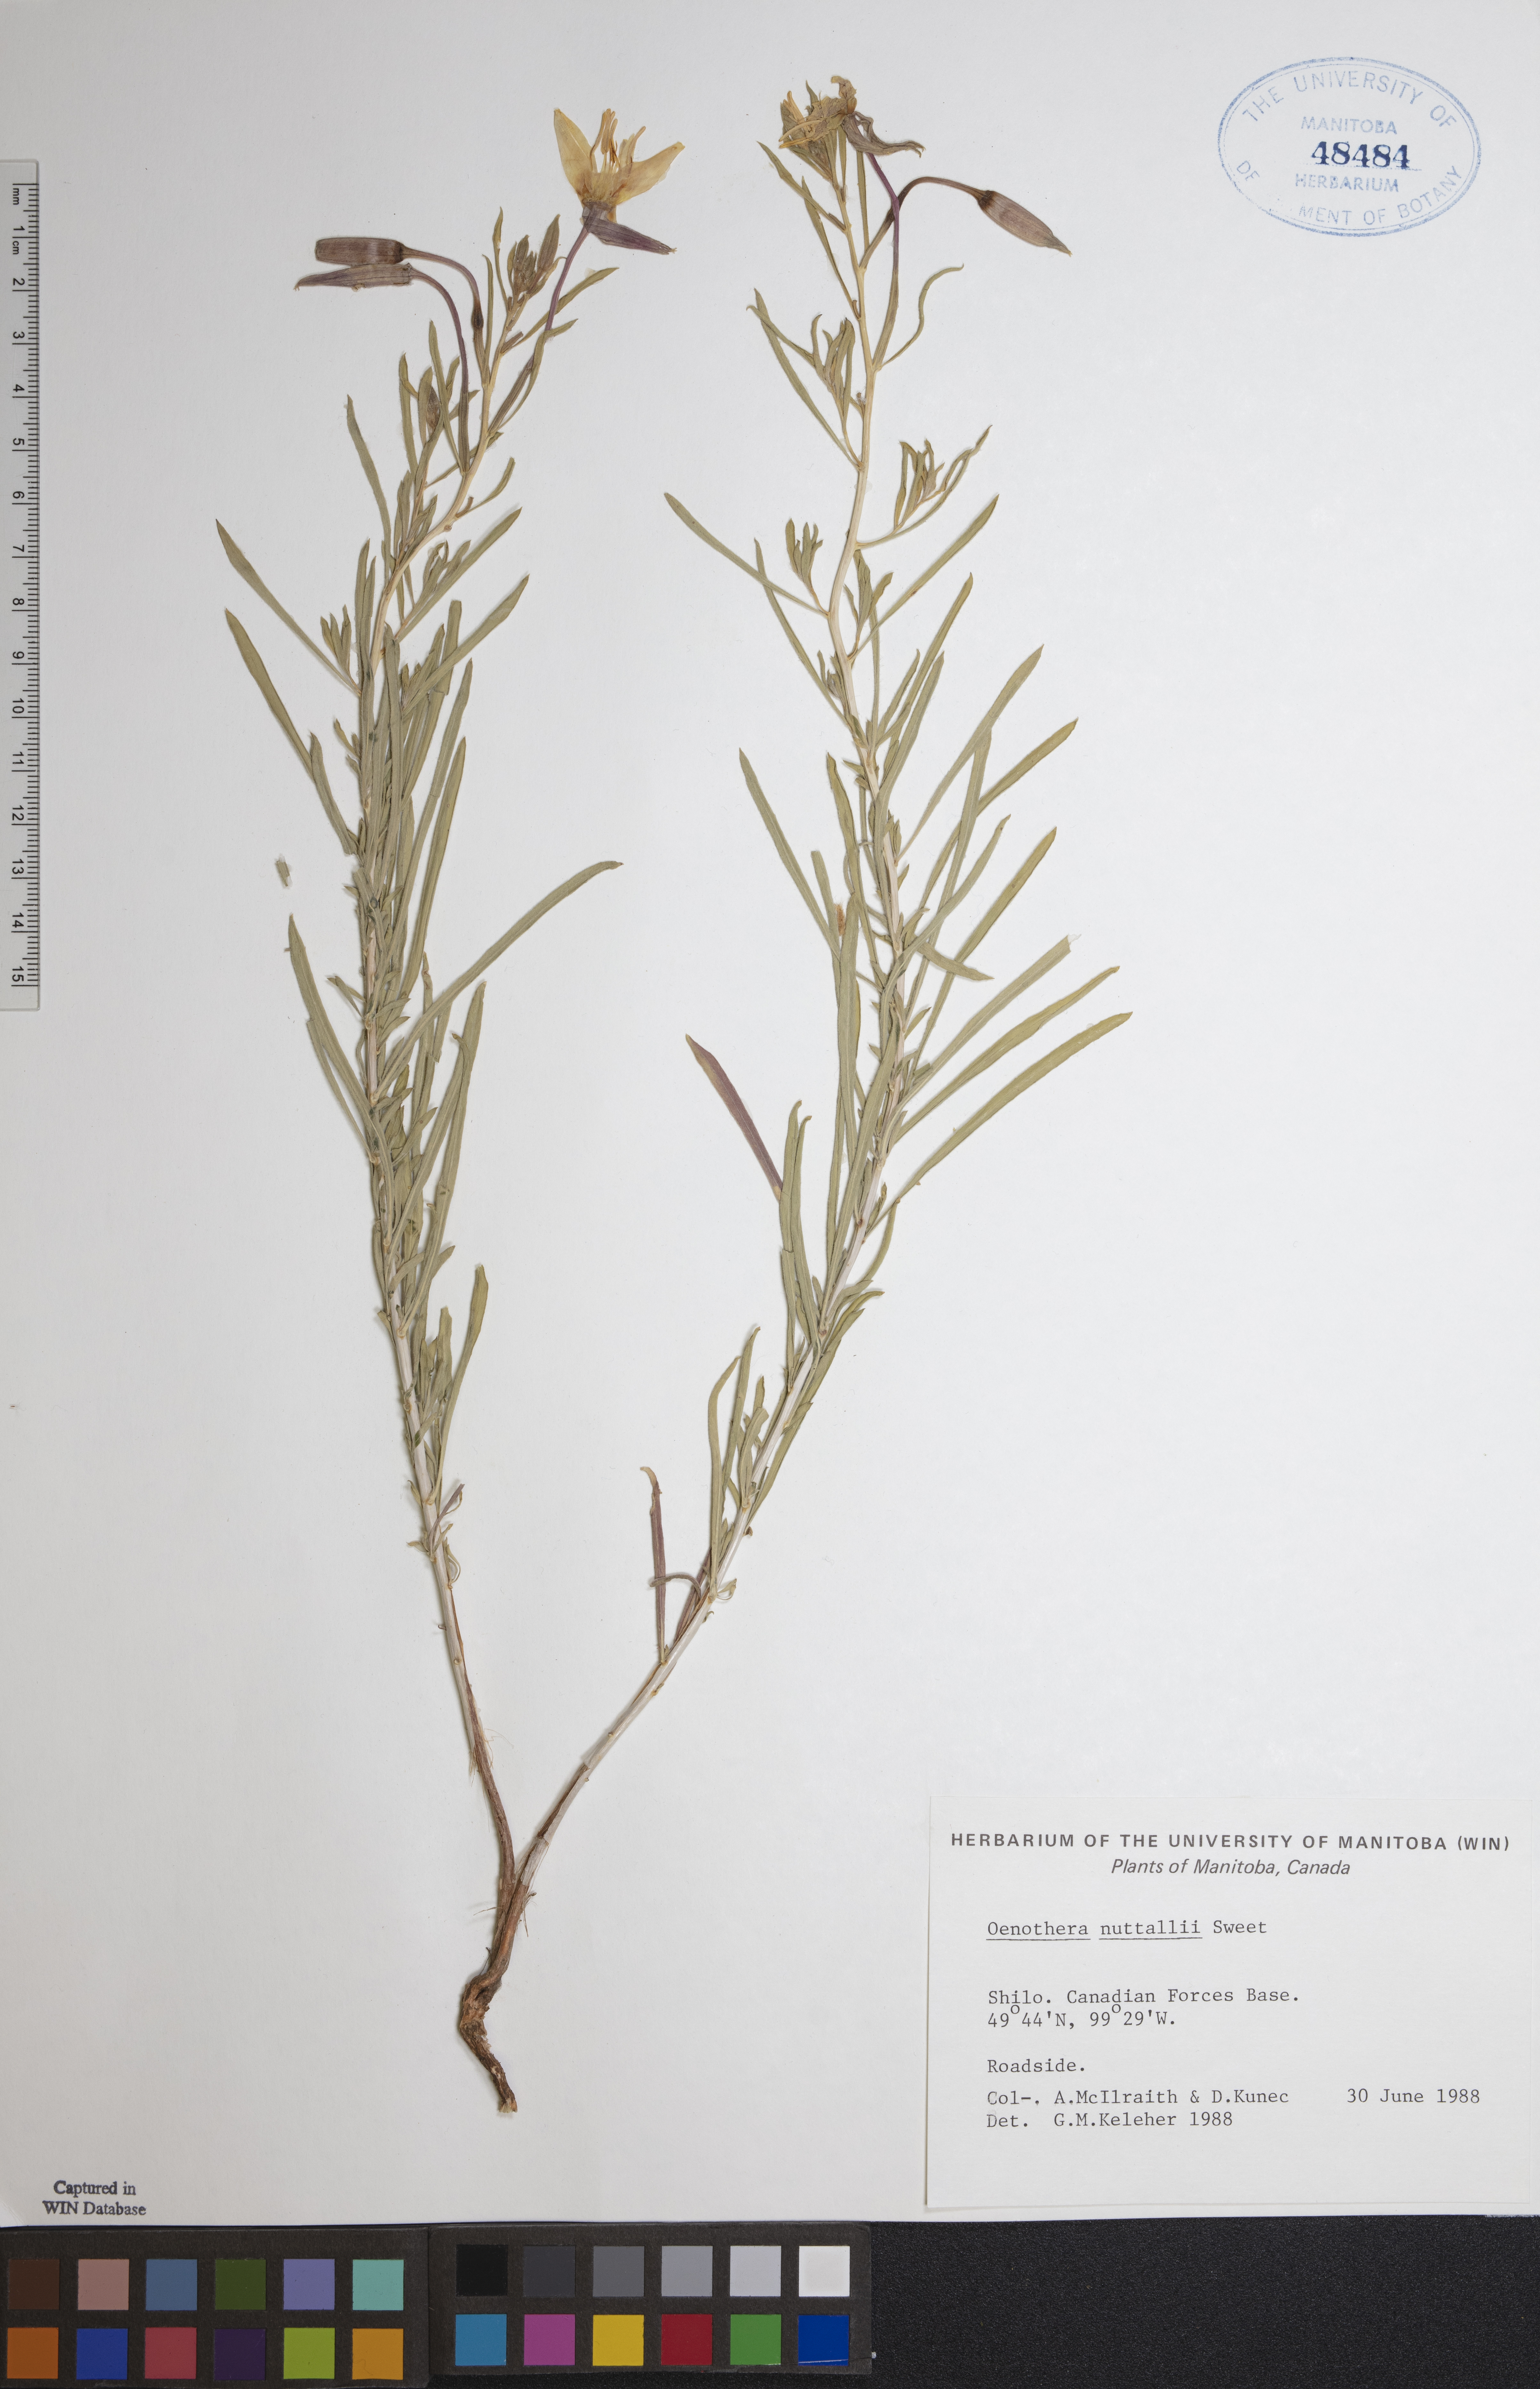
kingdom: Plantae
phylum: Tracheophyta
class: Magnoliopsida
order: Myrtales
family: Onagraceae
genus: Oenothera
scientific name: Oenothera albicaulis
